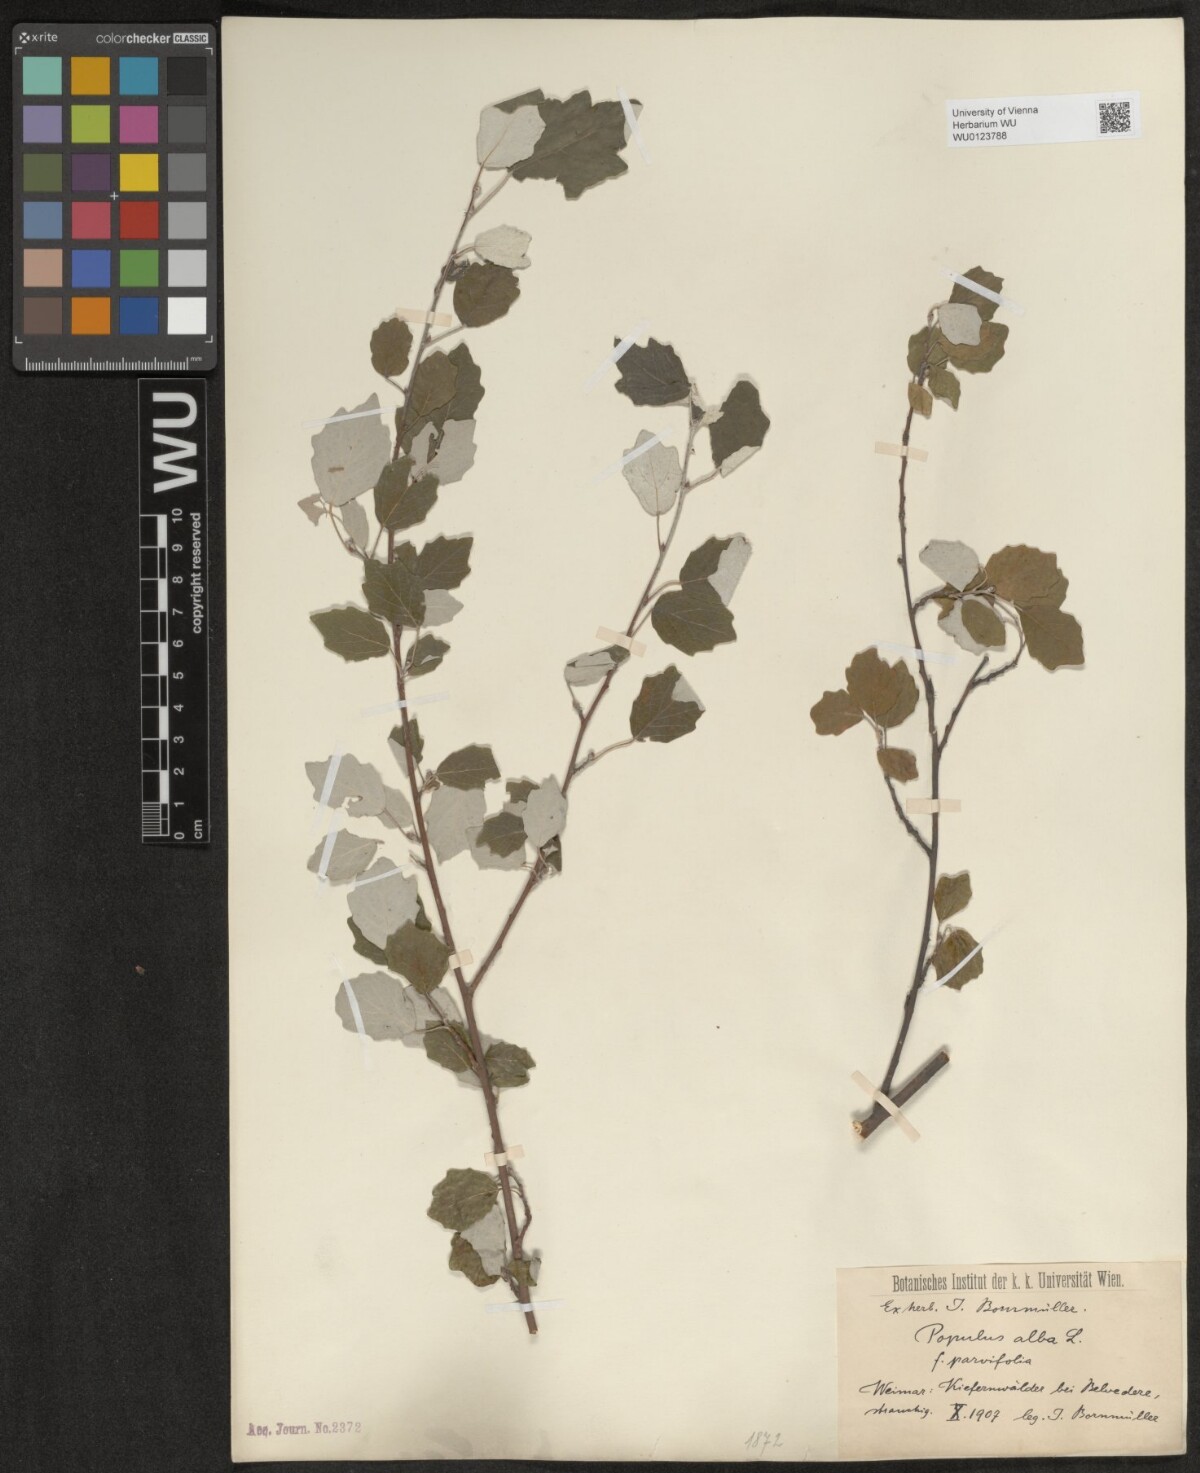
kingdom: Plantae
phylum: Tracheophyta
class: Magnoliopsida
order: Malpighiales
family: Salicaceae
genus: Populus
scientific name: Populus alba
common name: White poplar
